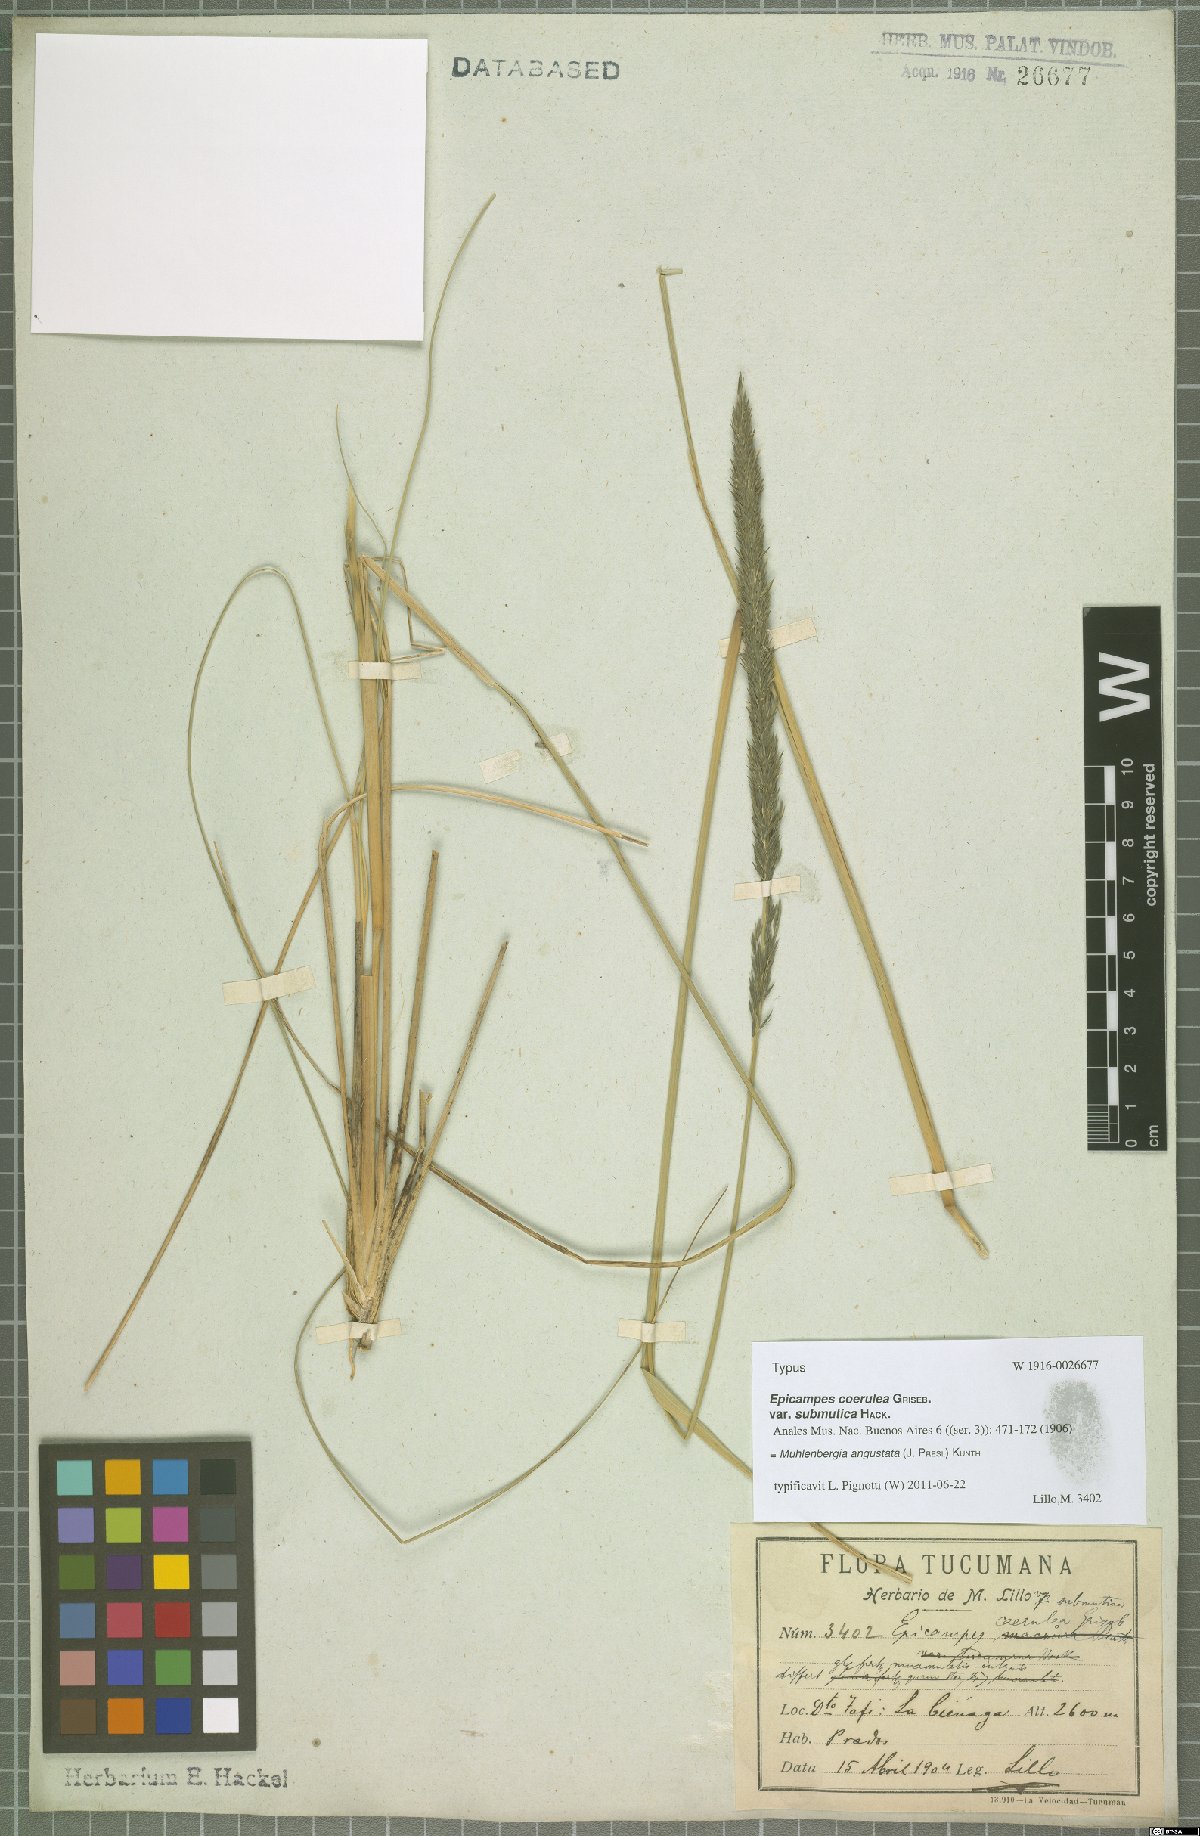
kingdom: Plantae
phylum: Tracheophyta
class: Liliopsida
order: Poales
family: Poaceae
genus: Muhlenbergia
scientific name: Muhlenbergia angustata
